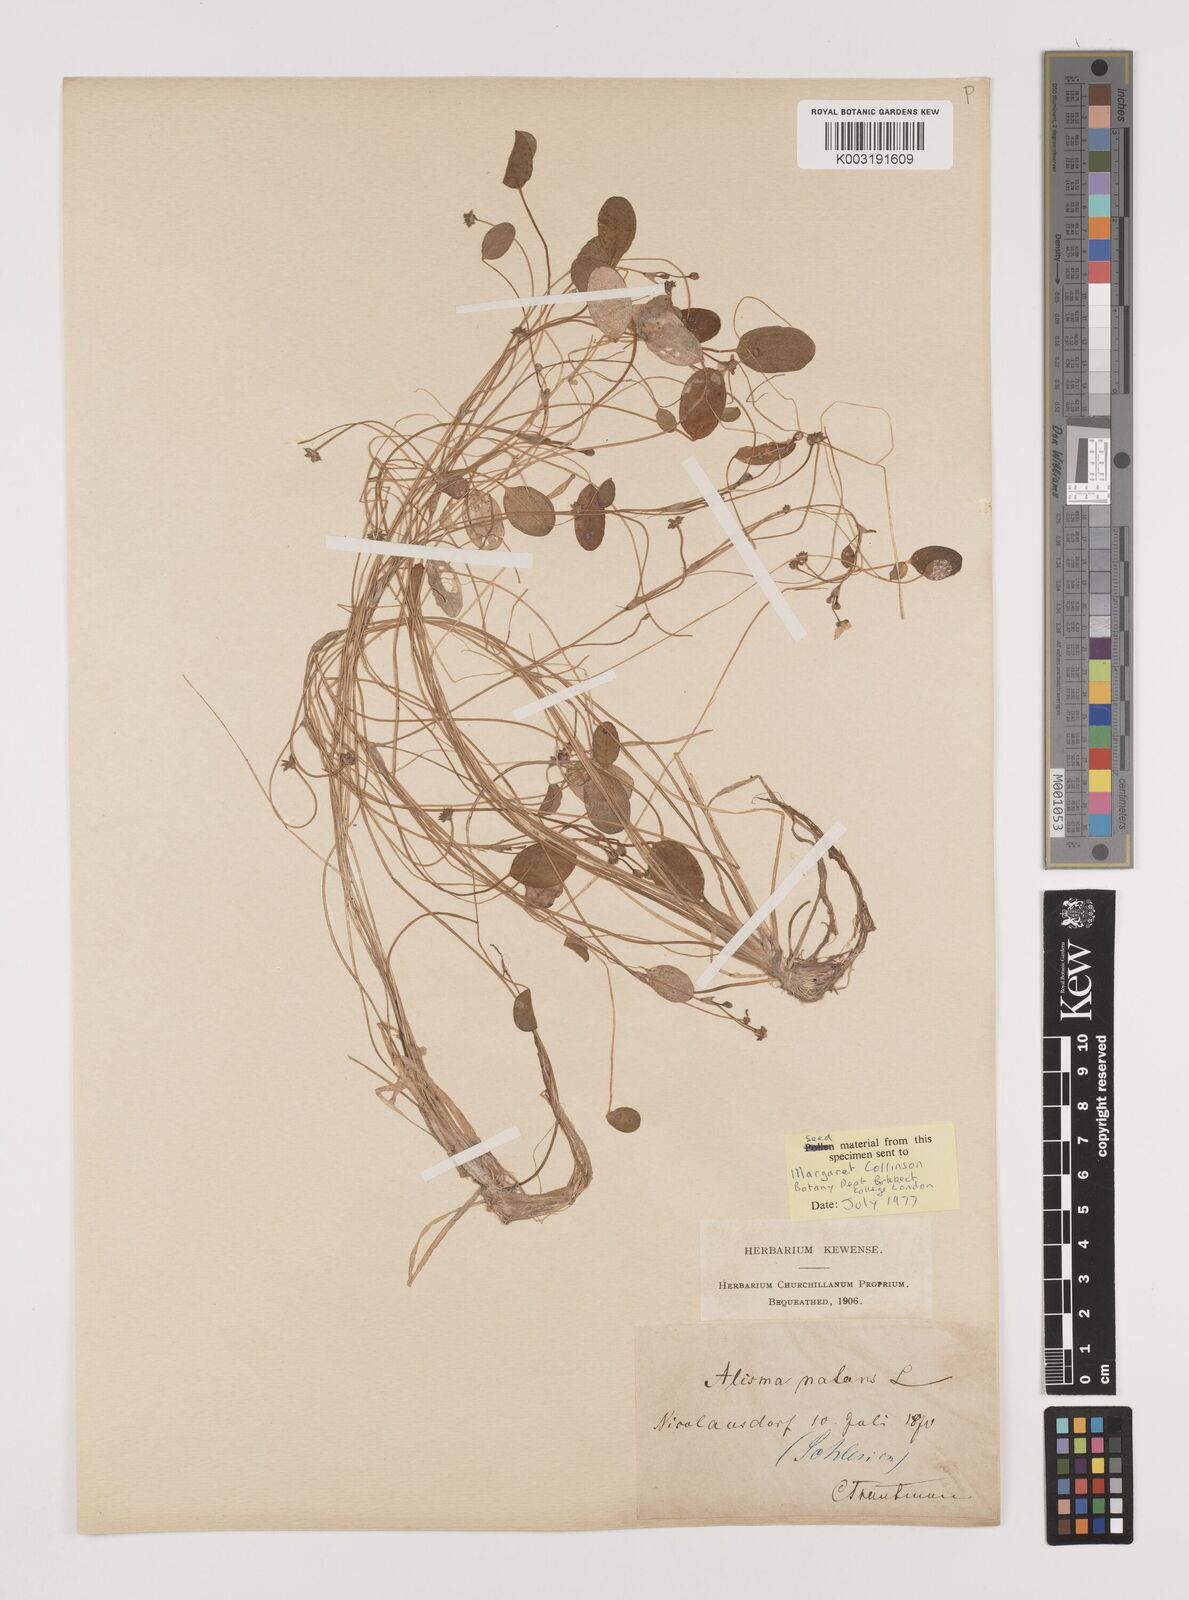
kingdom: Plantae
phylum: Tracheophyta
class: Liliopsida
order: Alismatales
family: Alismataceae
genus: Luronium
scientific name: Luronium natans
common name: Floating water-plantain
